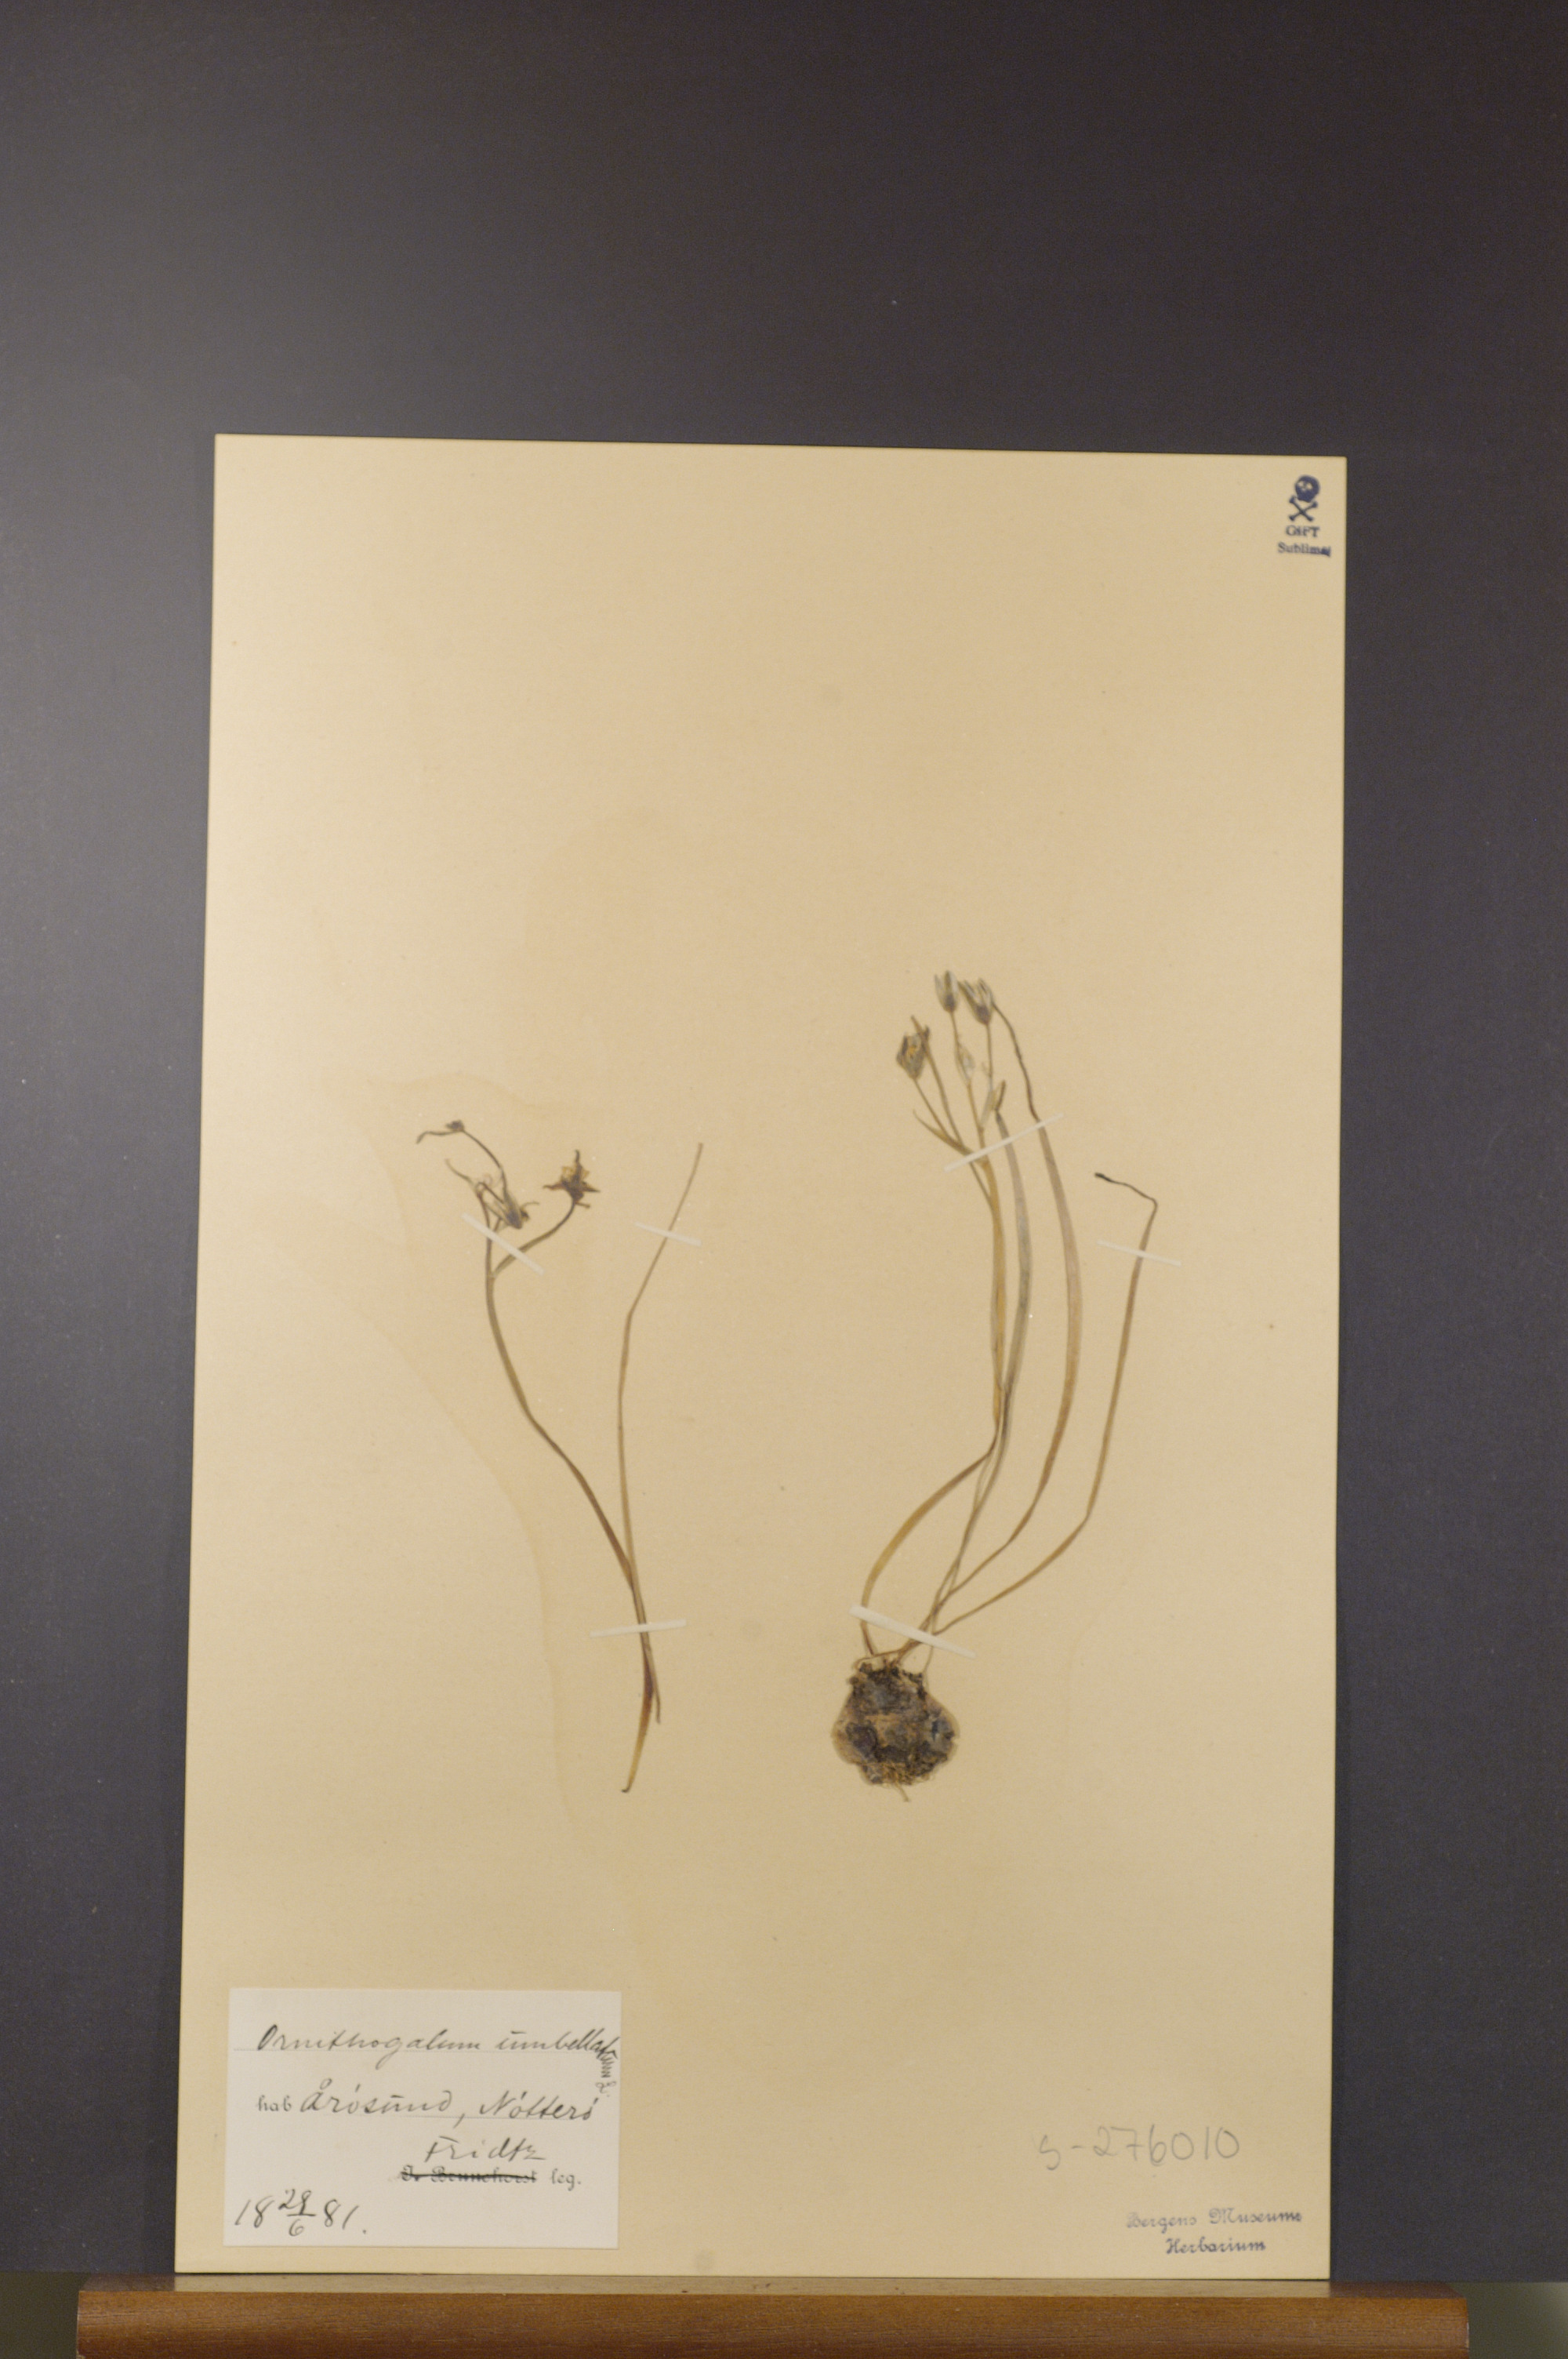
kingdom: Plantae
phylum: Tracheophyta
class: Liliopsida
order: Asparagales
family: Asparagaceae
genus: Ornithogalum
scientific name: Ornithogalum umbellatum
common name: Garden star-of-bethlehem
